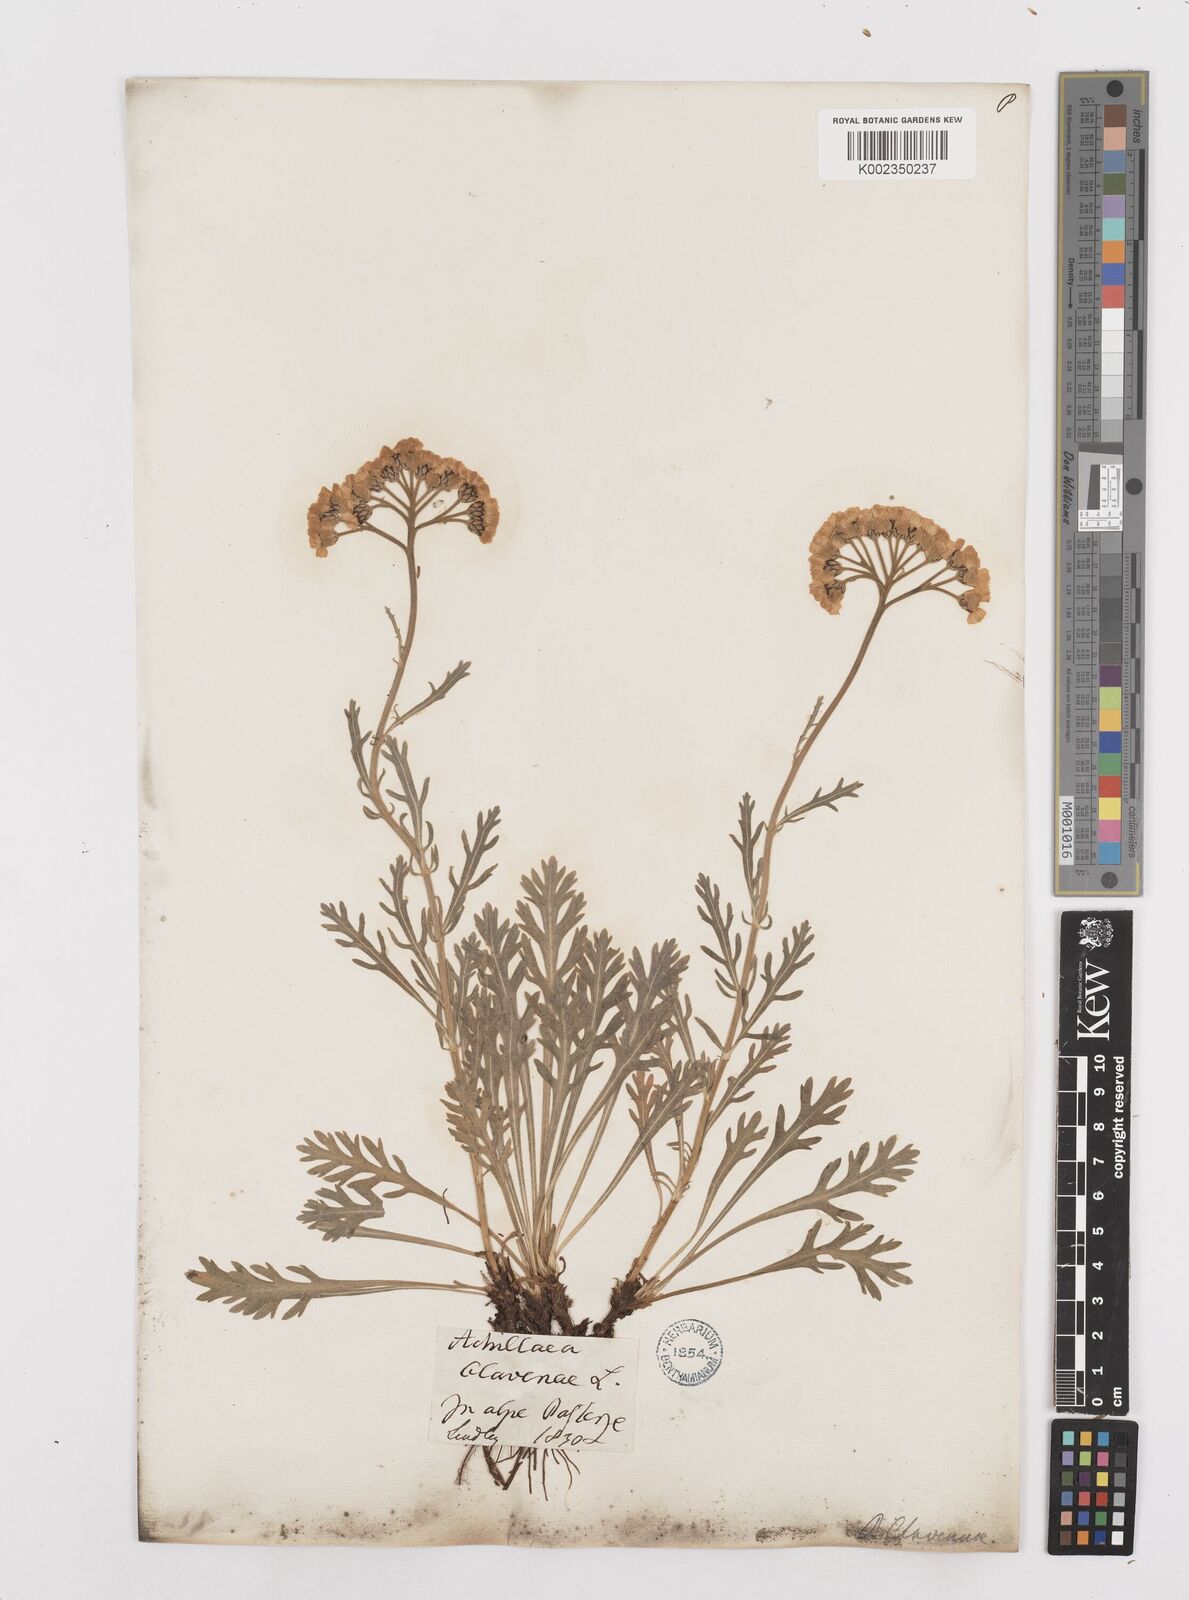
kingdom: Plantae
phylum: Tracheophyta
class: Magnoliopsida
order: Asterales
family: Asteraceae
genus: Achillea
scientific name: Achillea clavennae
